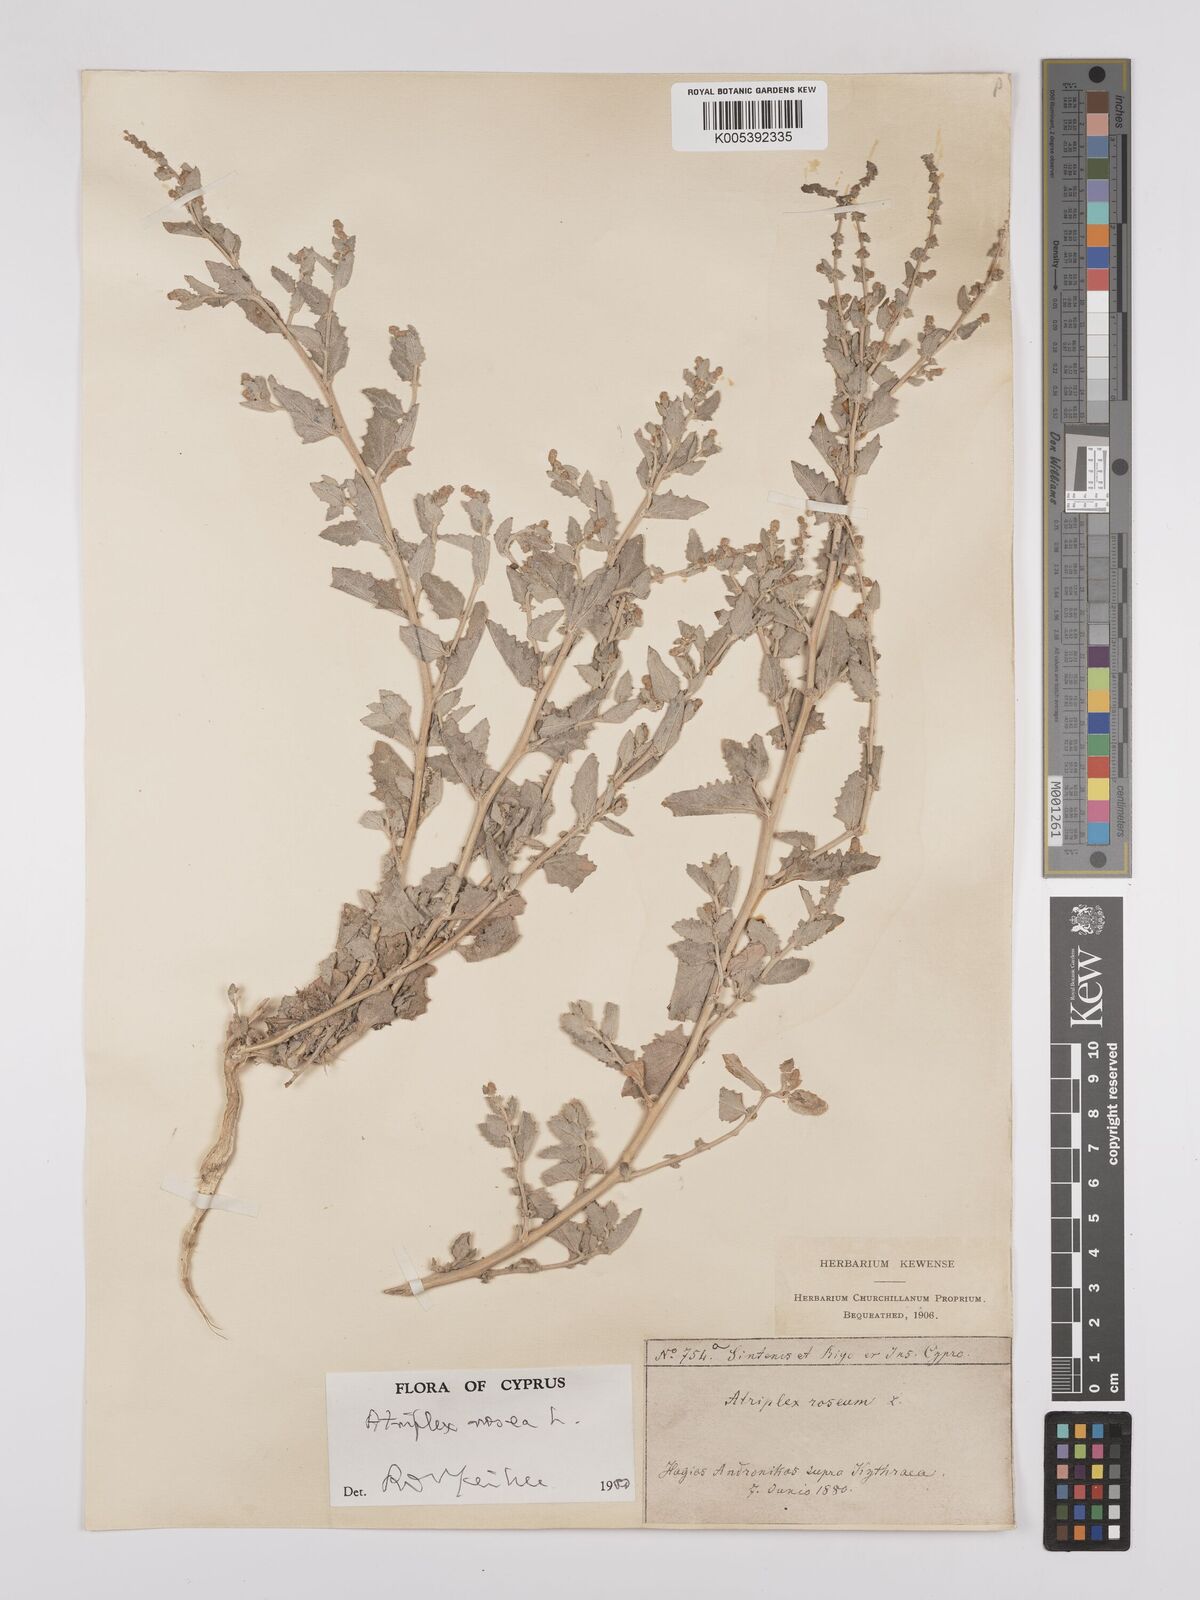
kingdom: Plantae
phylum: Tracheophyta
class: Magnoliopsida
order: Caryophyllales
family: Amaranthaceae
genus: Atriplex
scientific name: Atriplex
